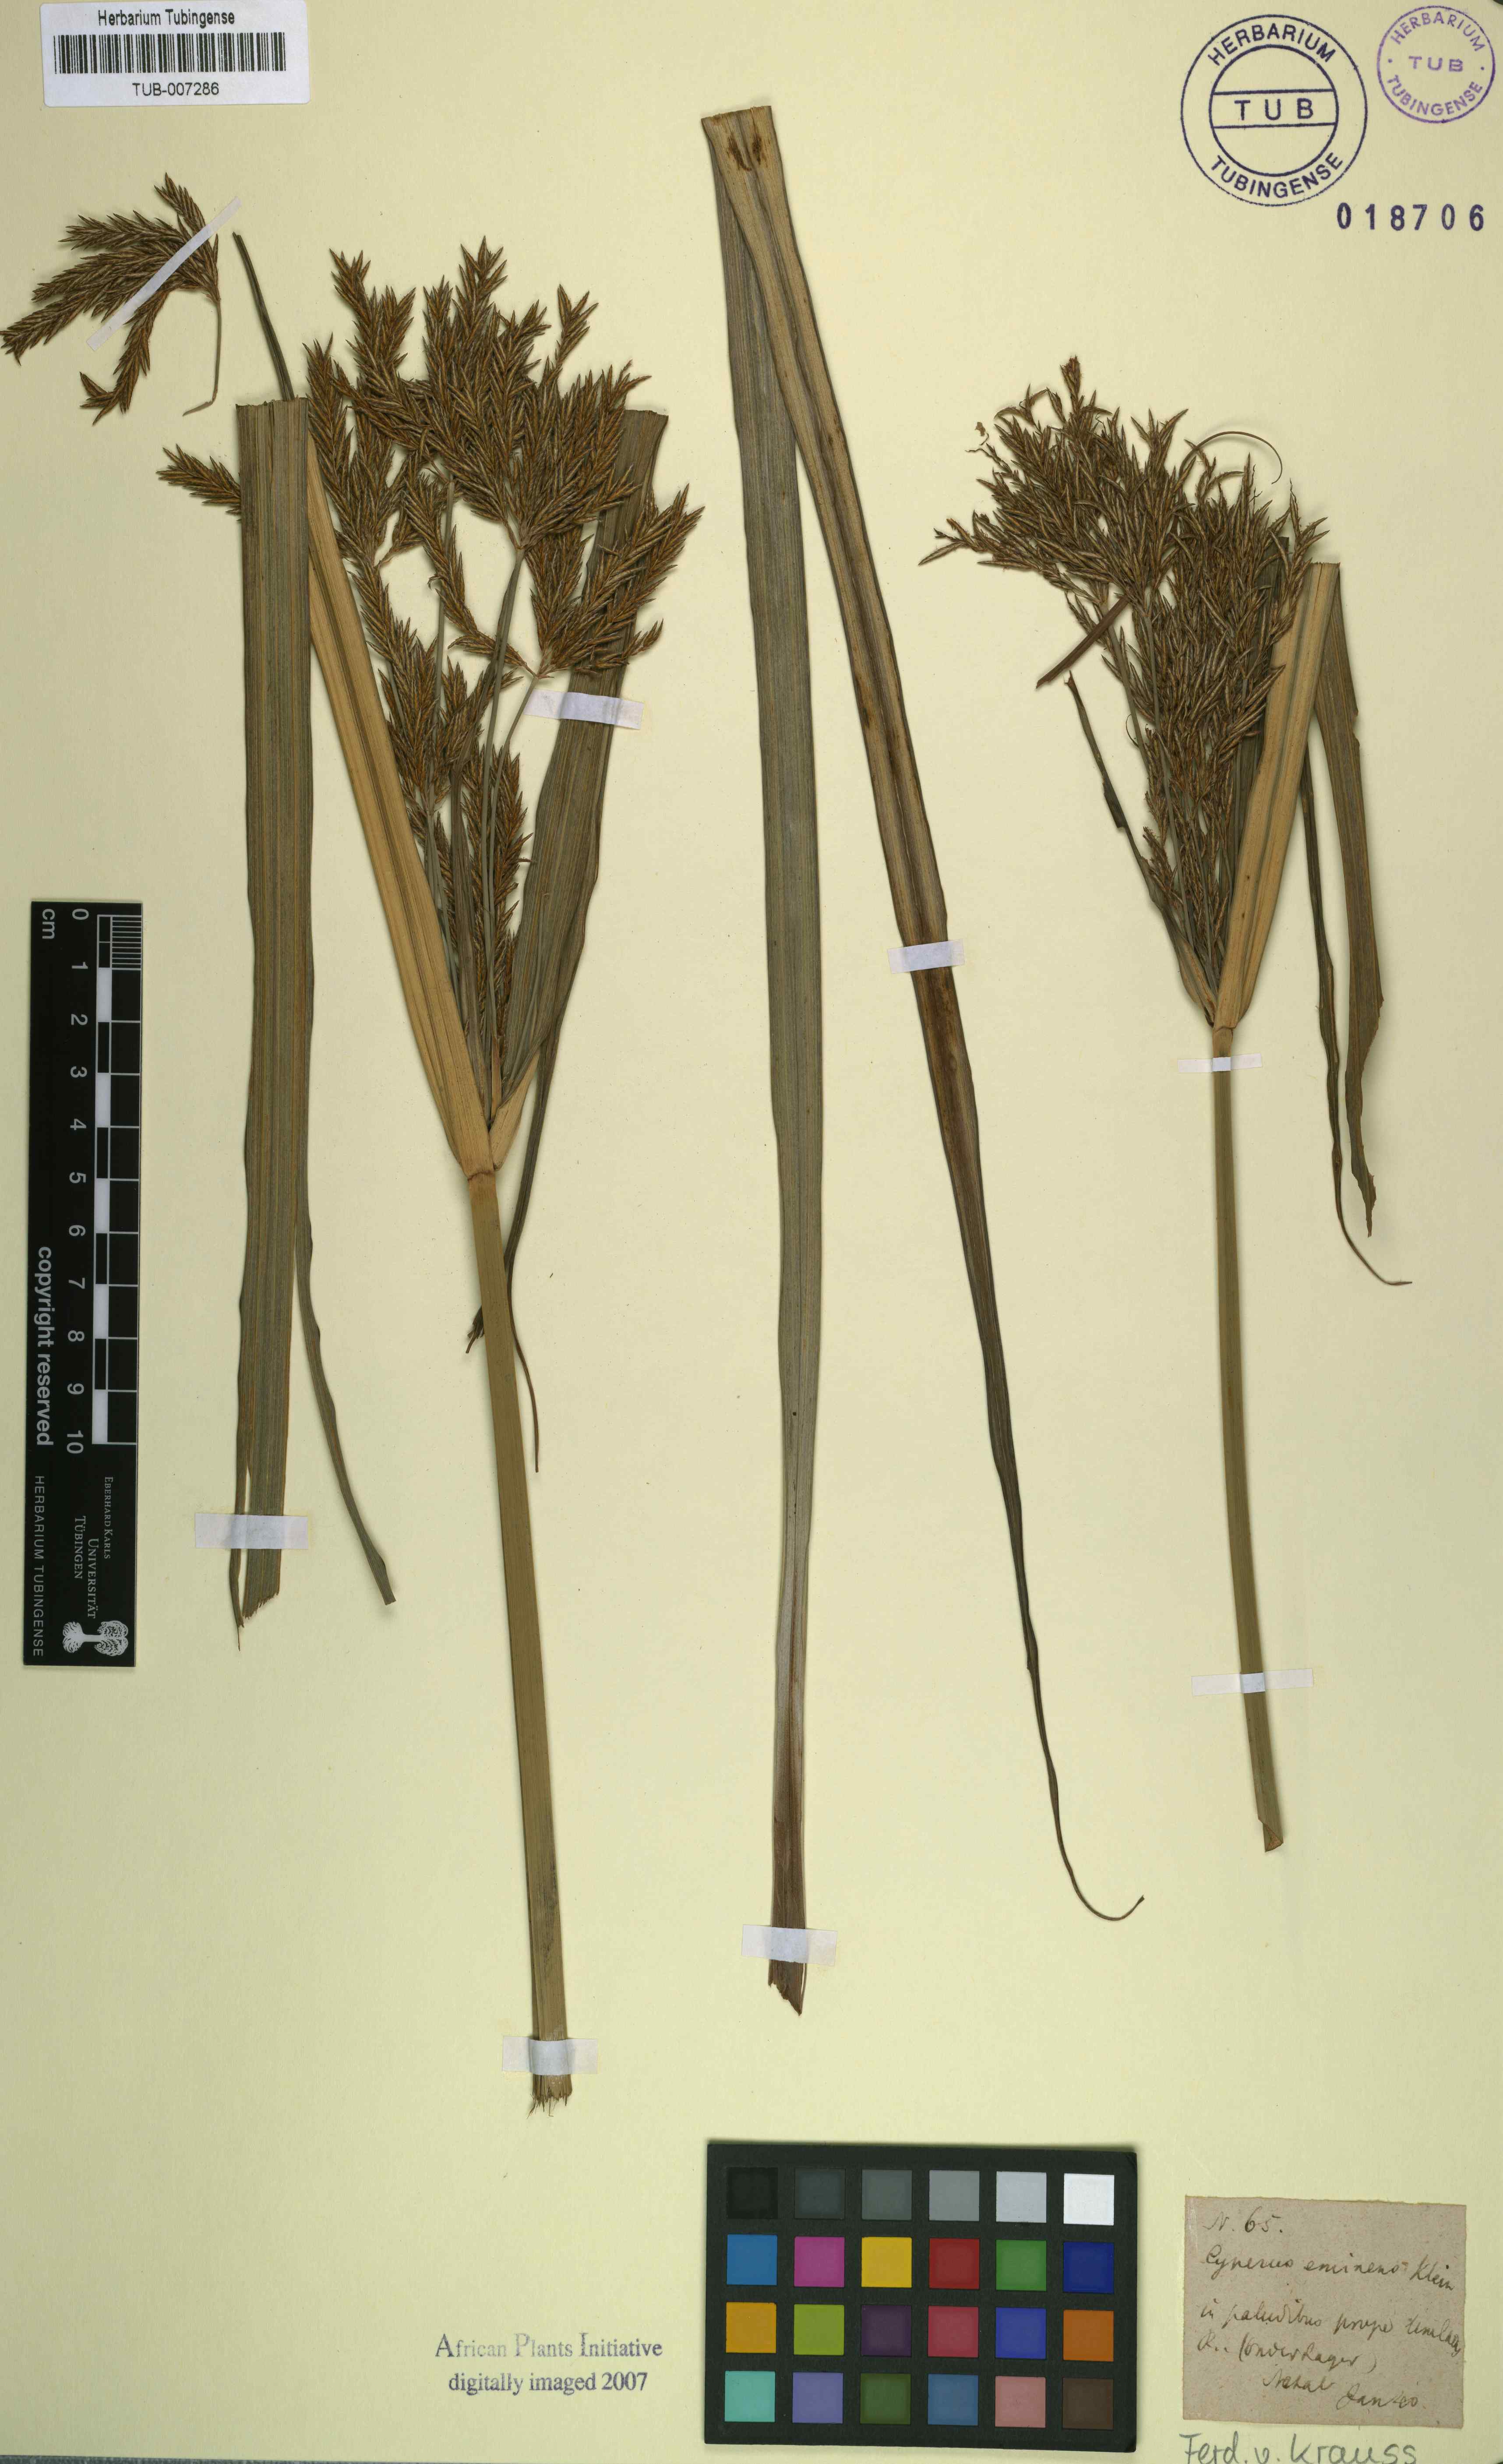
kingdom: Plantae
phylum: Tracheophyta
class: Liliopsida
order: Poales
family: Cyperaceae
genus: Cyperus
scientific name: Cyperus platyphyllus
